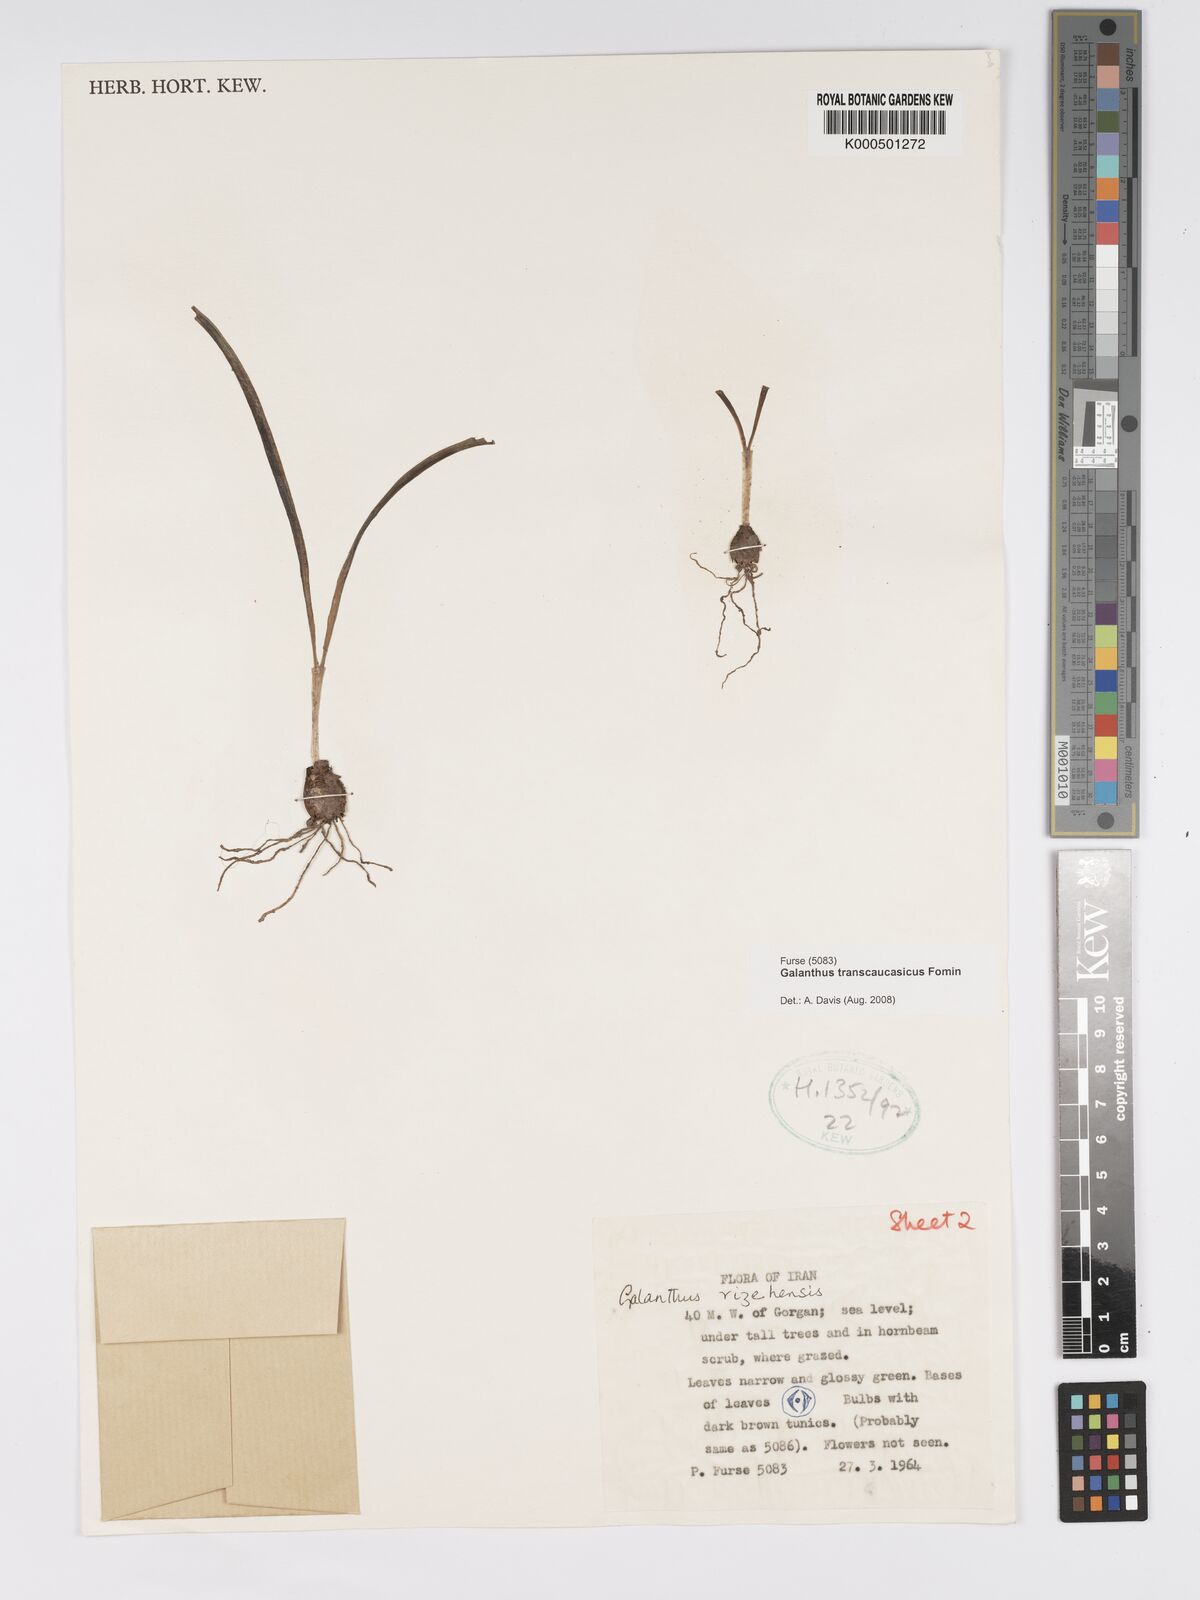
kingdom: Plantae
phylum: Tracheophyta
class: Liliopsida
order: Asparagales
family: Amaryllidaceae
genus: Galanthus
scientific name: Galanthus transcaucasicus
